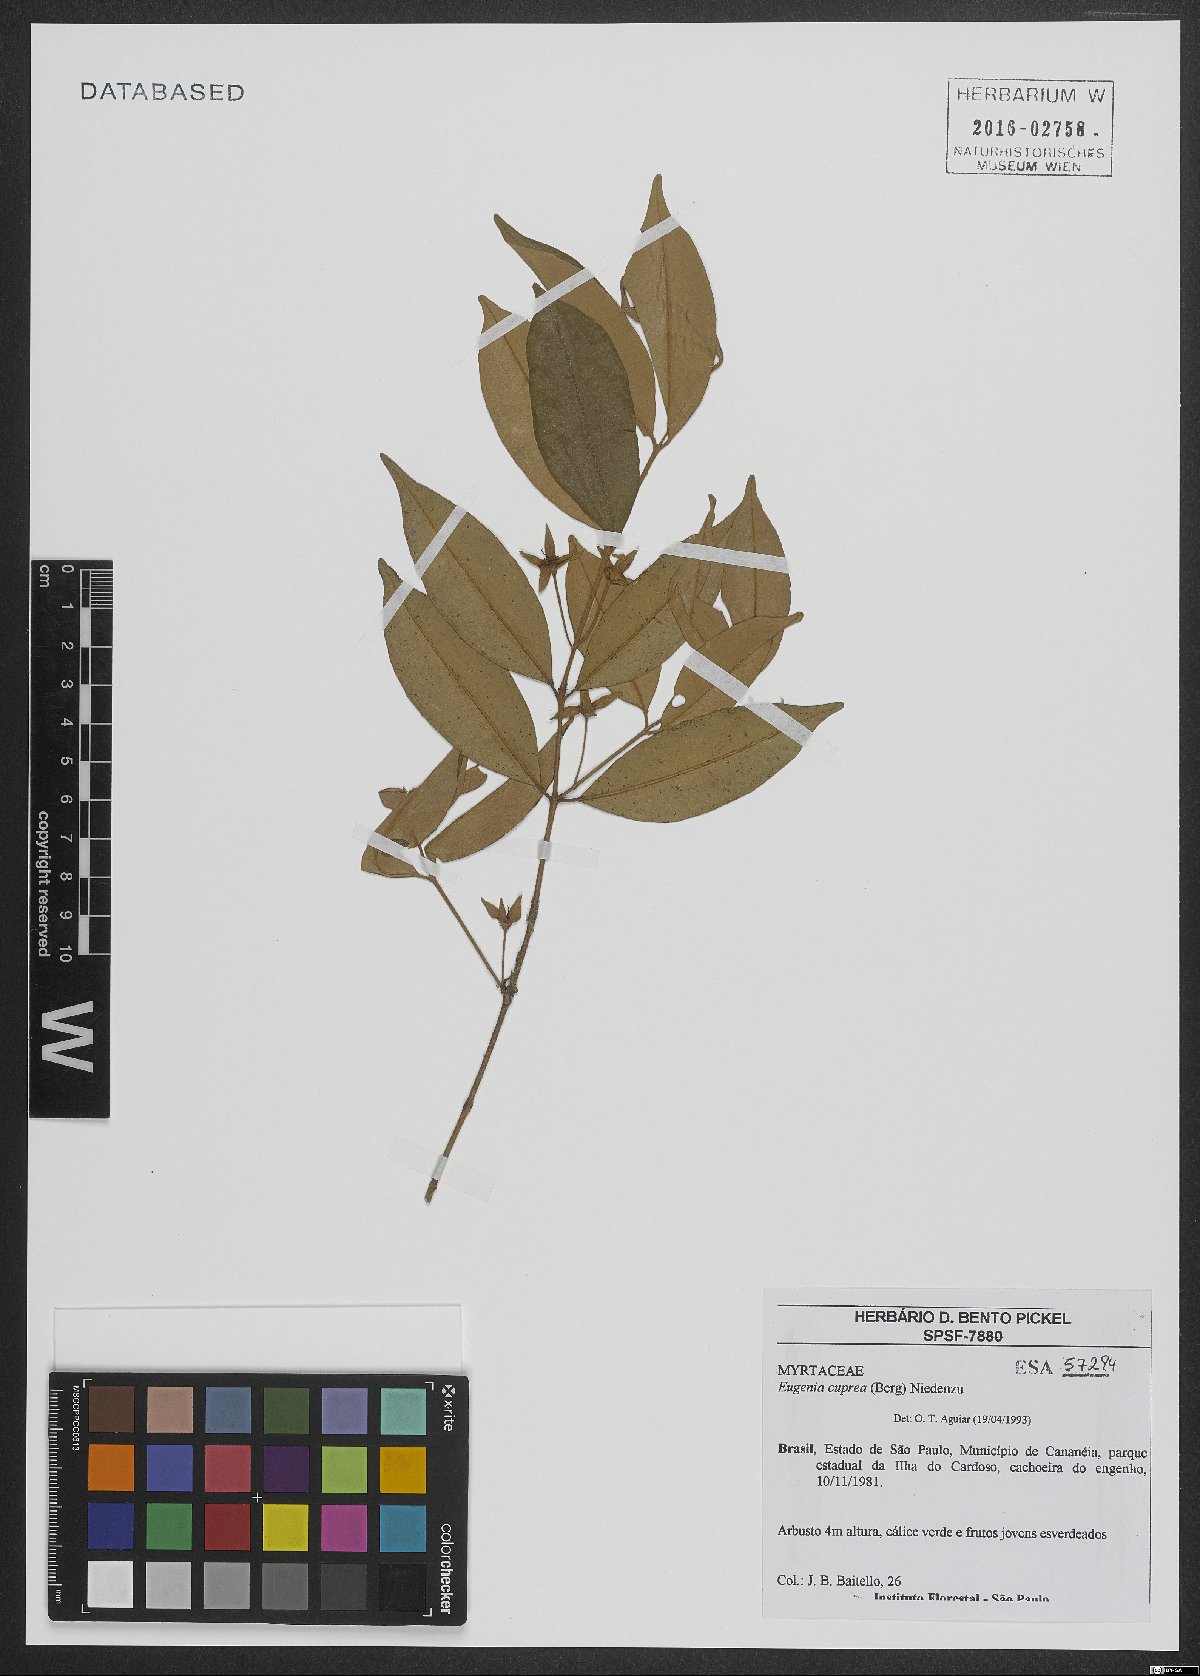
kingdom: Plantae
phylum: Tracheophyta
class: Magnoliopsida
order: Myrtales
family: Myrtaceae
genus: Eugenia
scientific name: Eugenia cuprea
